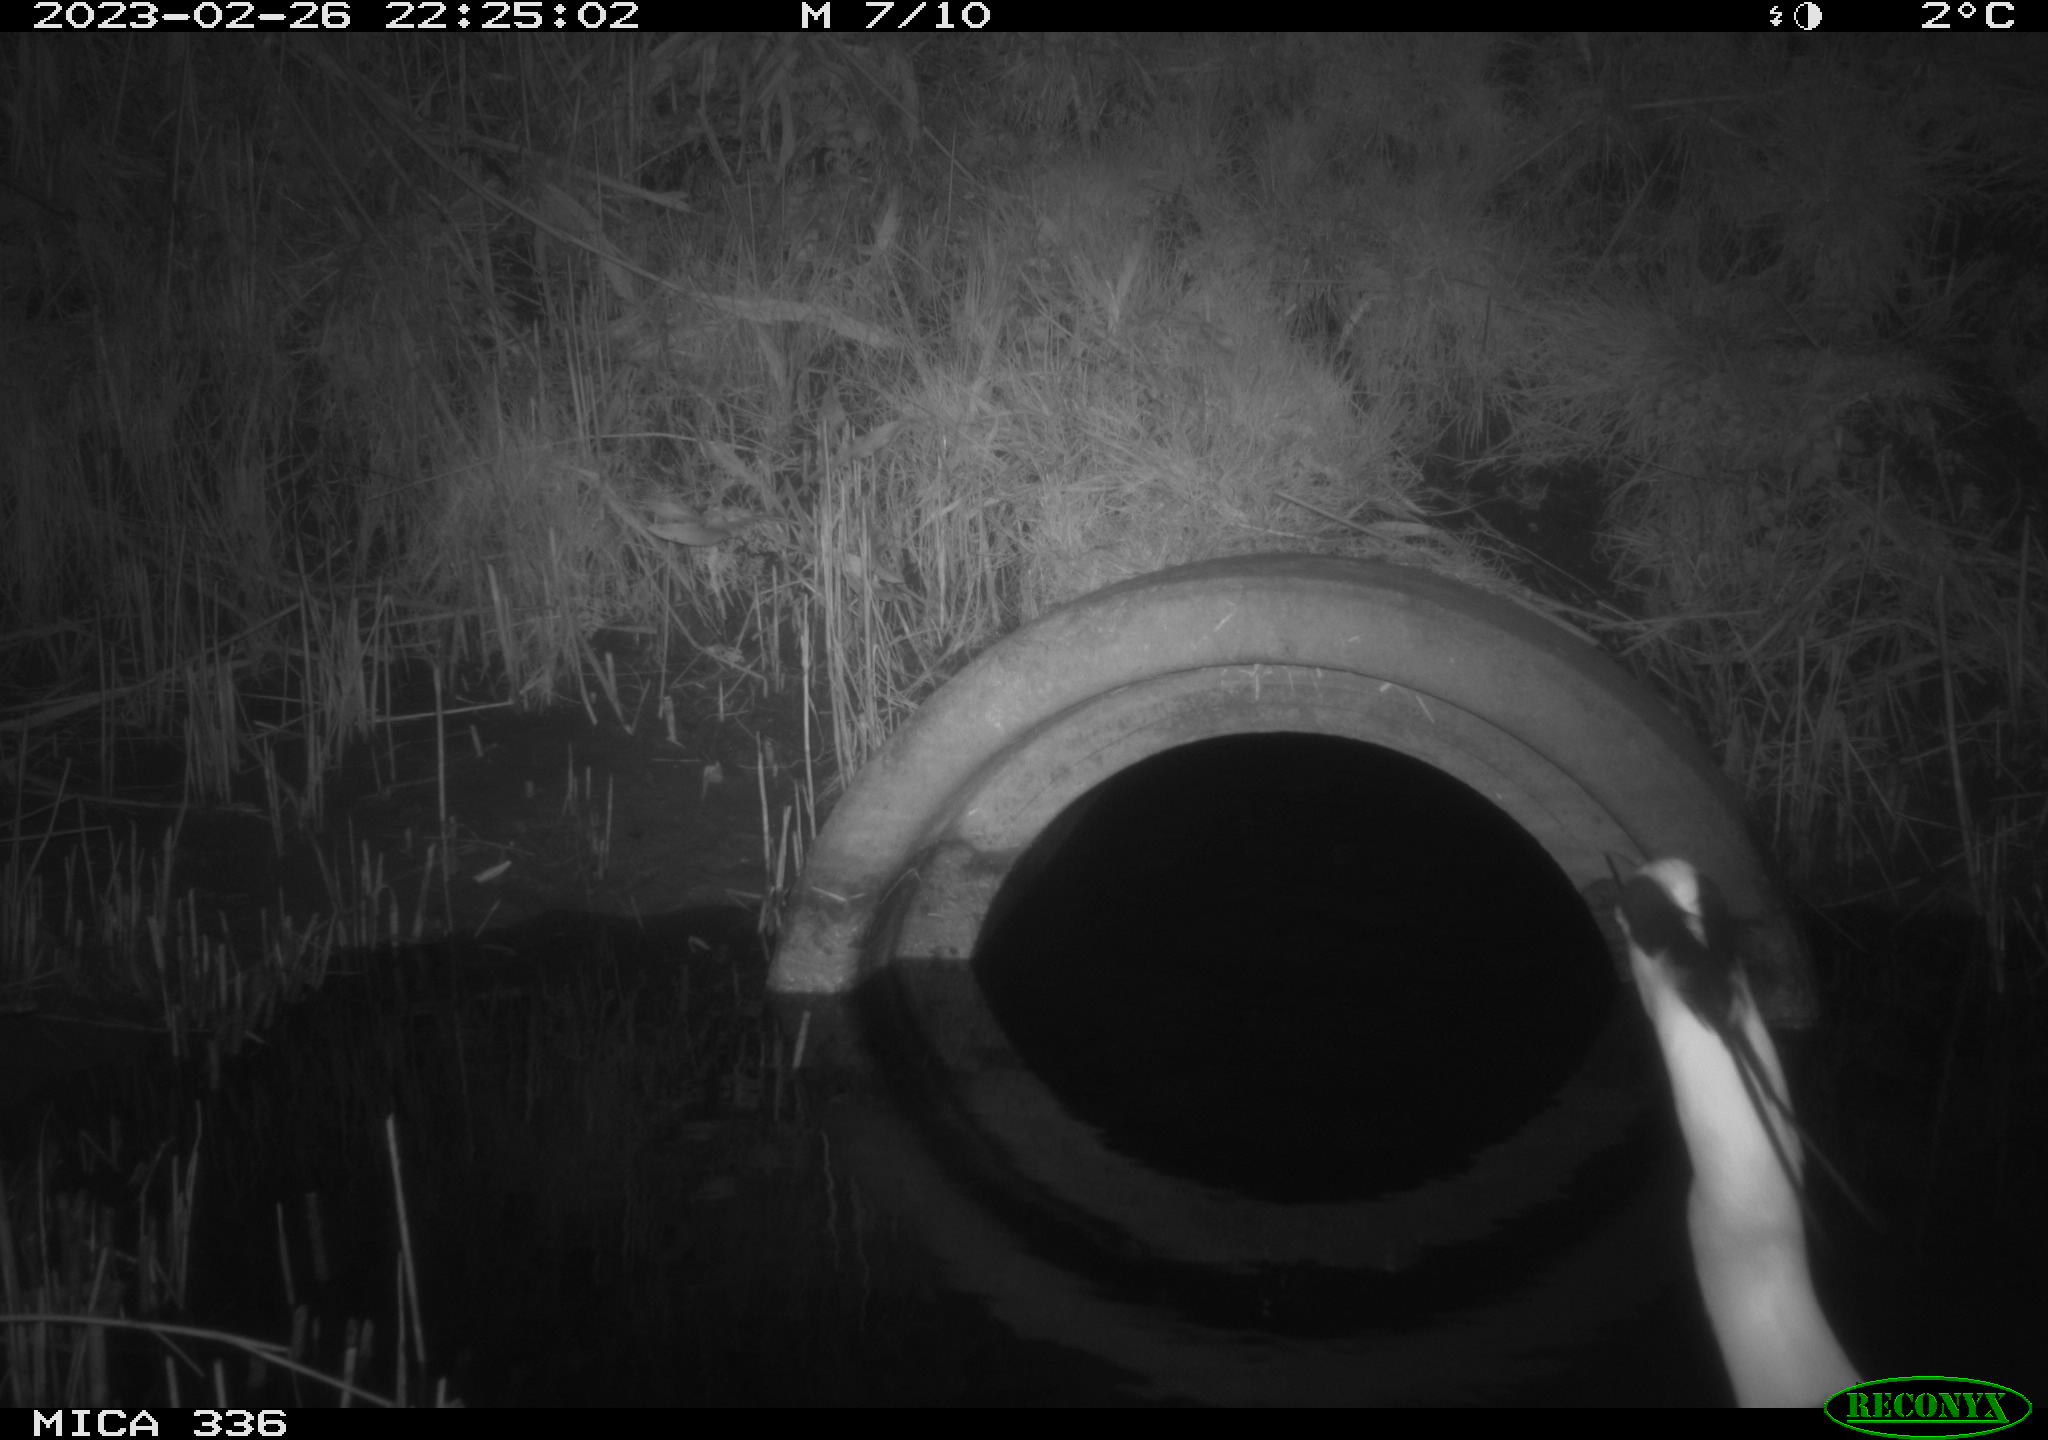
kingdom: Animalia
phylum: Chordata
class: Aves
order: Pelecaniformes
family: Ardeidae
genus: Ardea
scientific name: Ardea cinerea
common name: Grey heron
